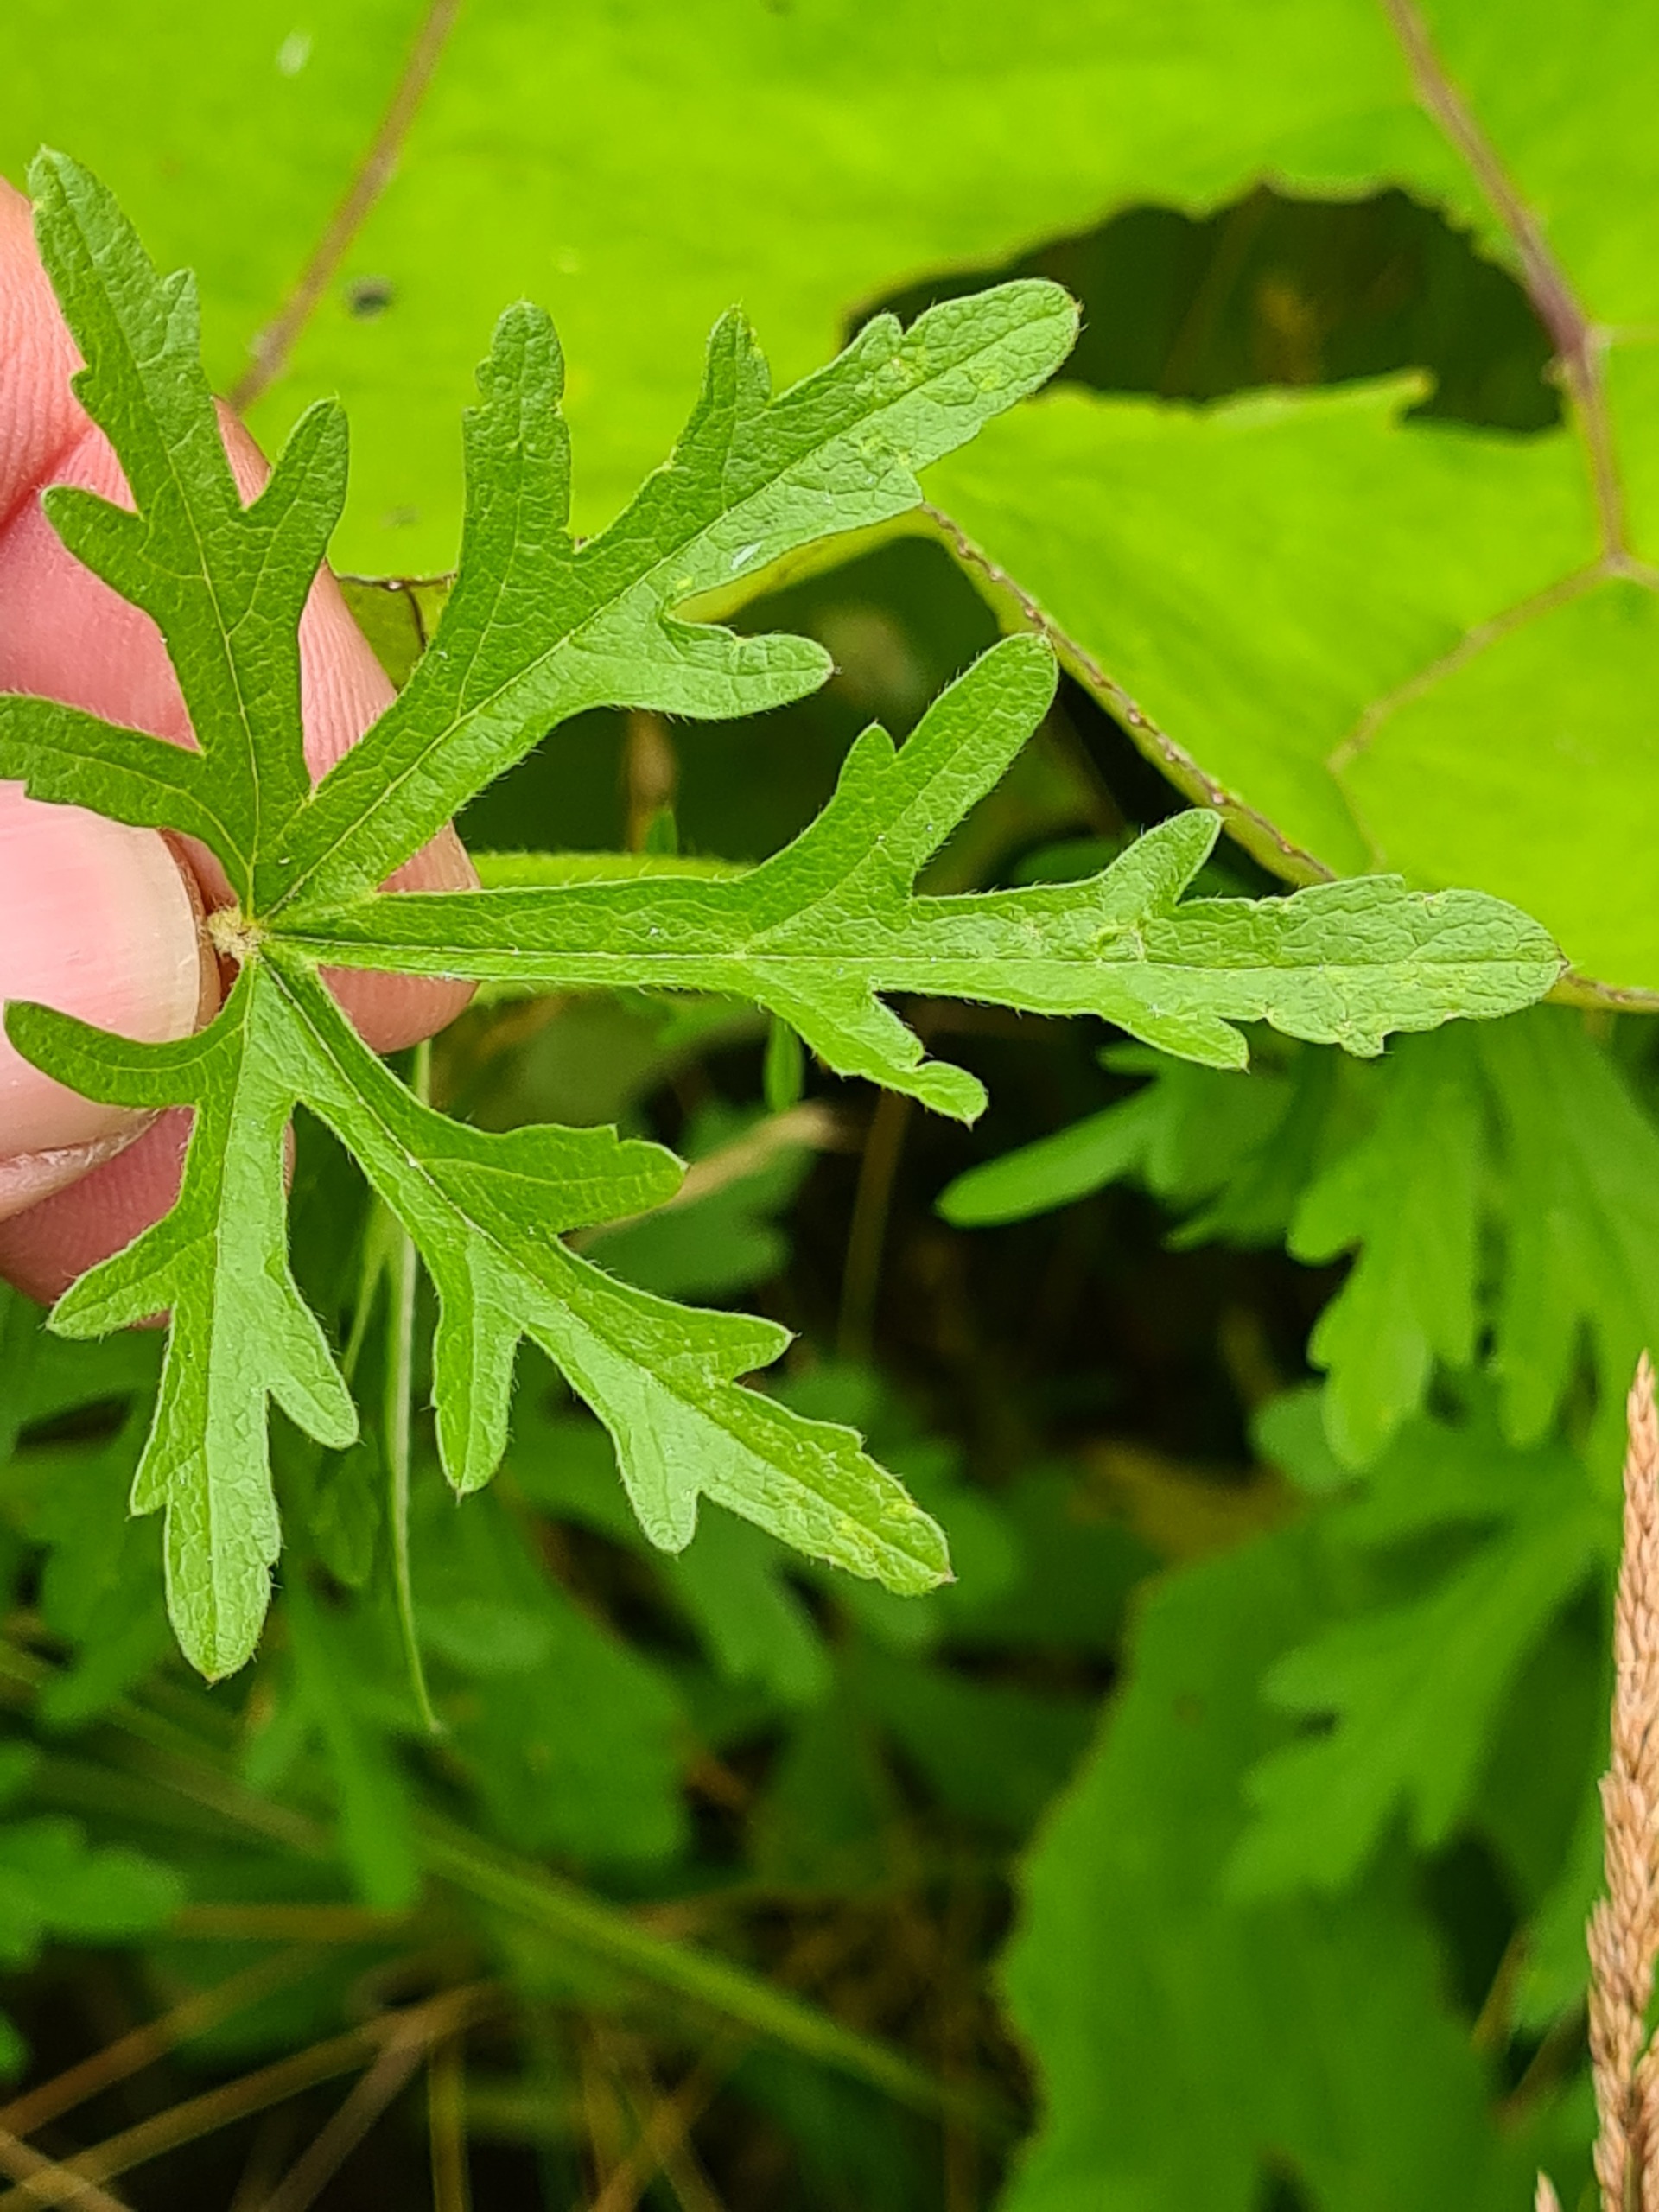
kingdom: Plantae
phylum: Tracheophyta
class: Magnoliopsida
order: Malvales
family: Malvaceae
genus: Malva
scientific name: Malva alcea
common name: Rosen-katost
